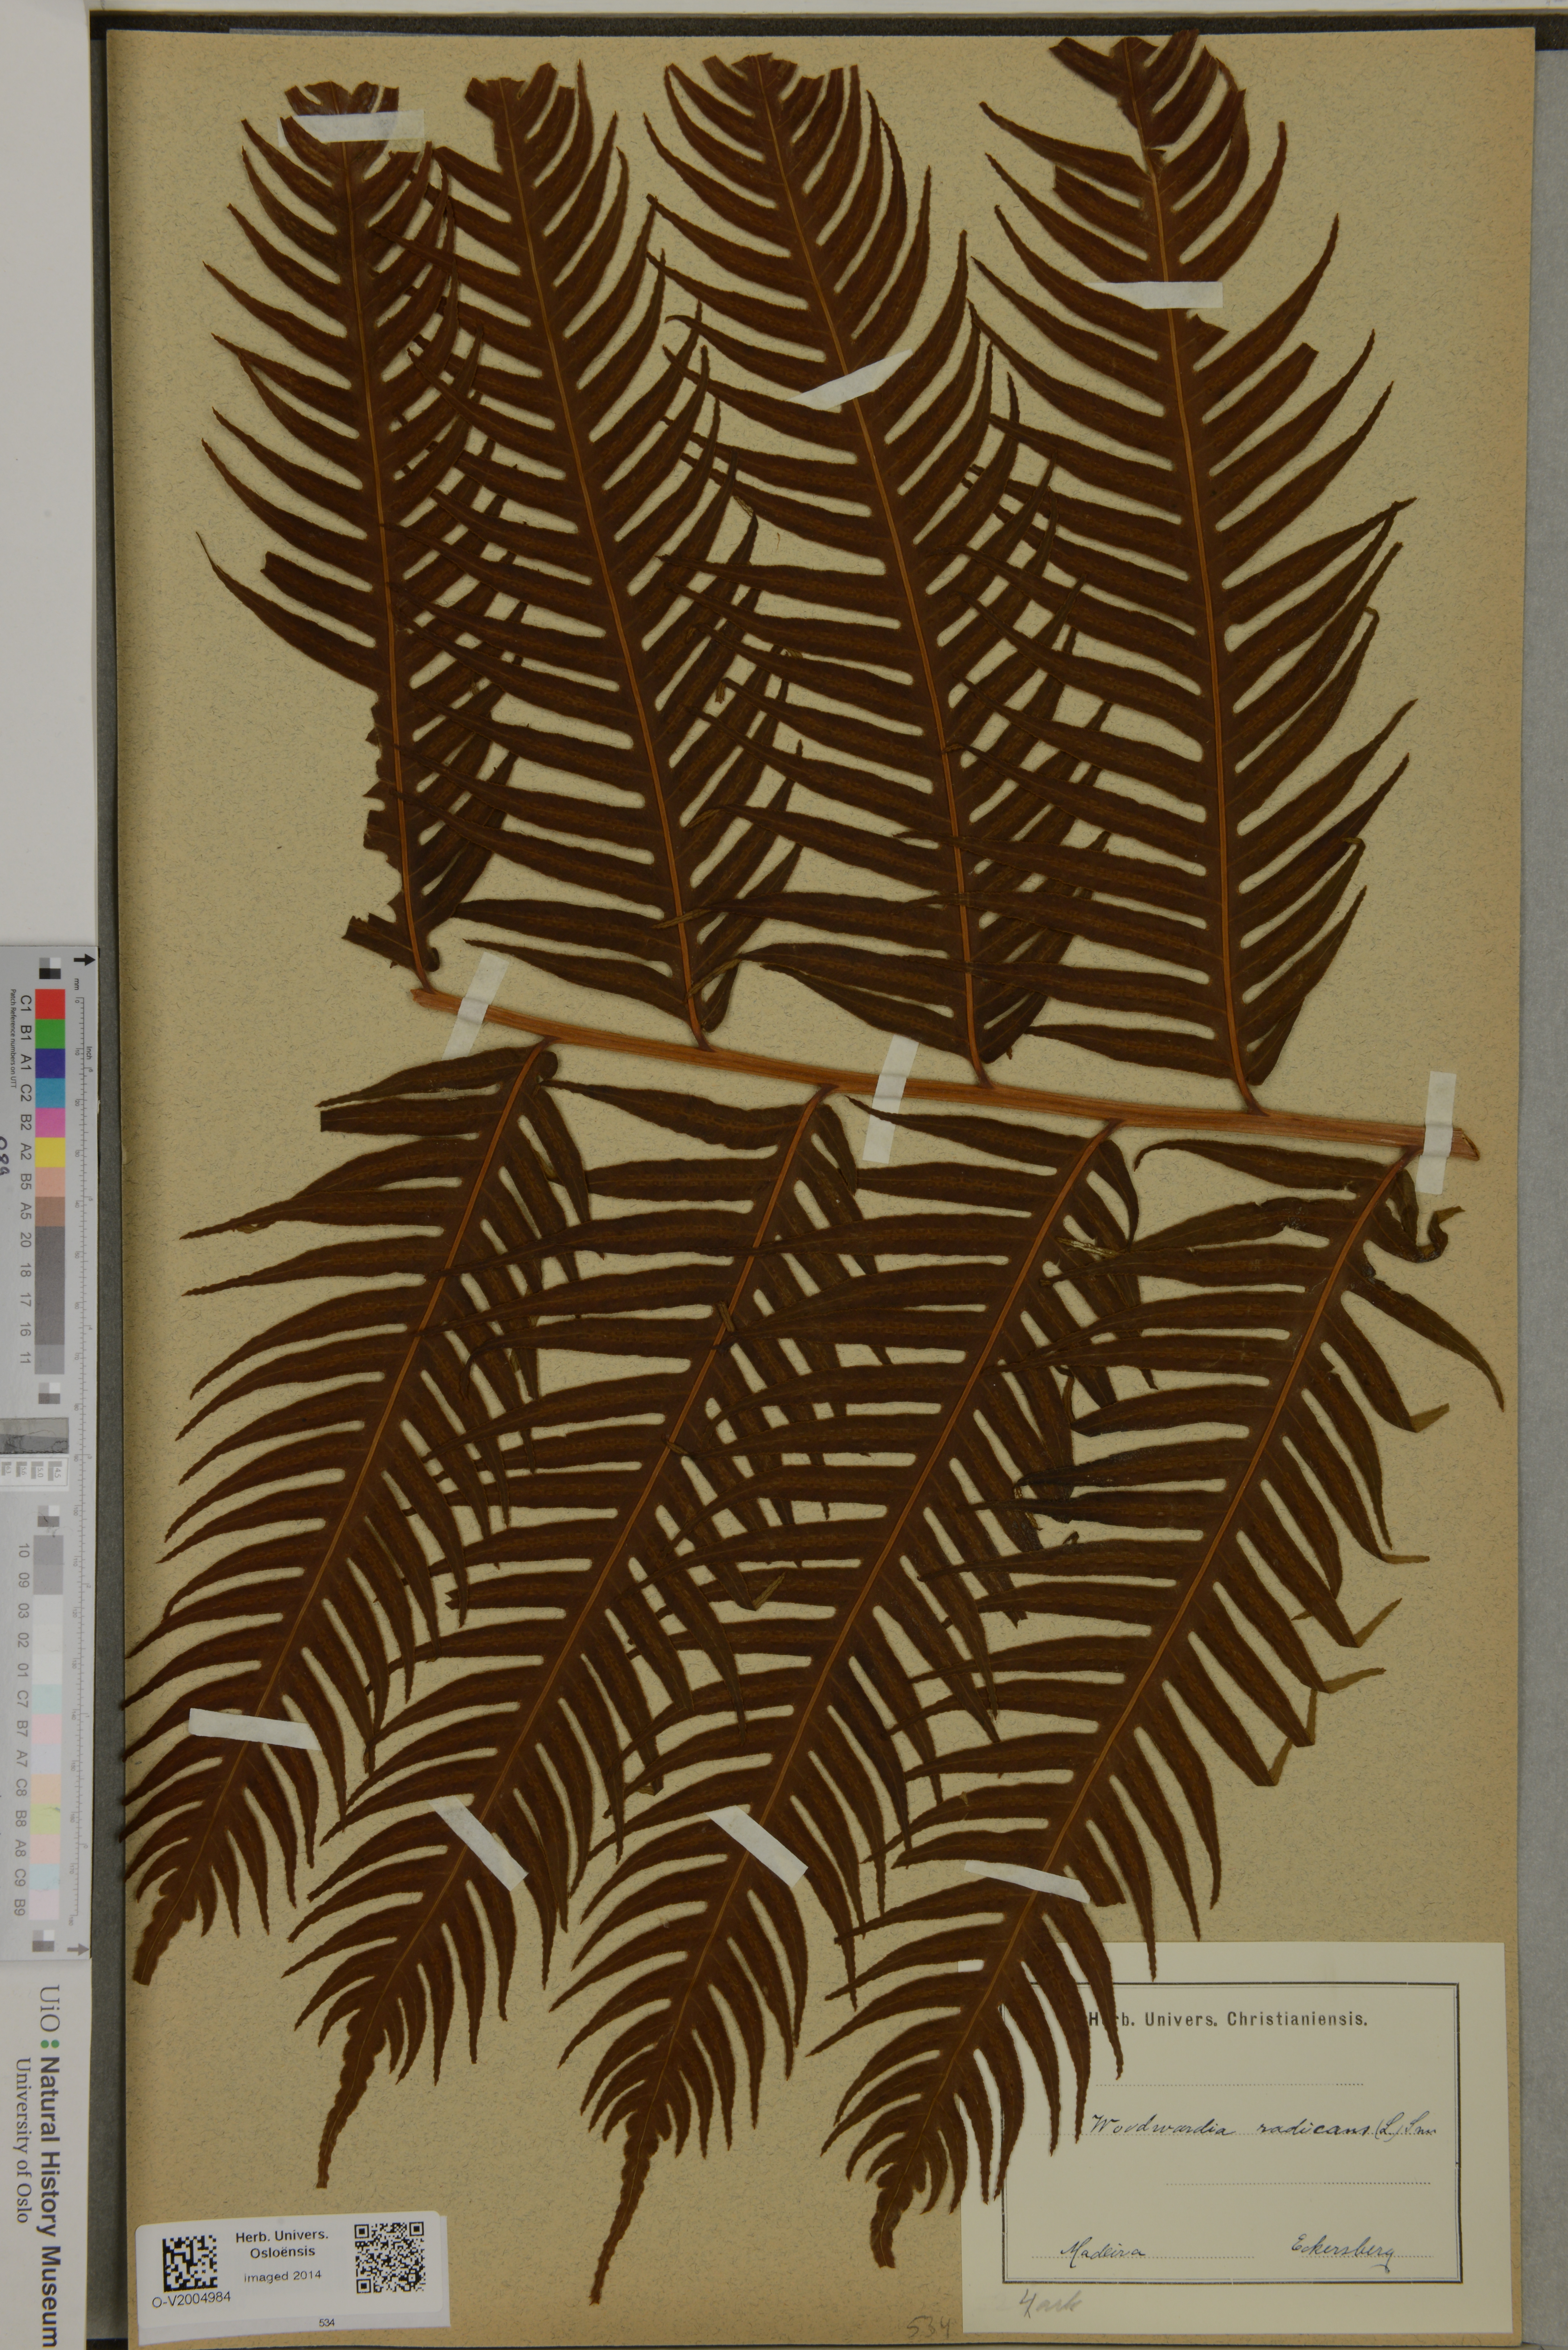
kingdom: Plantae
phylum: Tracheophyta
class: Polypodiopsida
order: Polypodiales
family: Blechnaceae
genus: Woodwardia
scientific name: Woodwardia radicans
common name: Rooting chainfern
